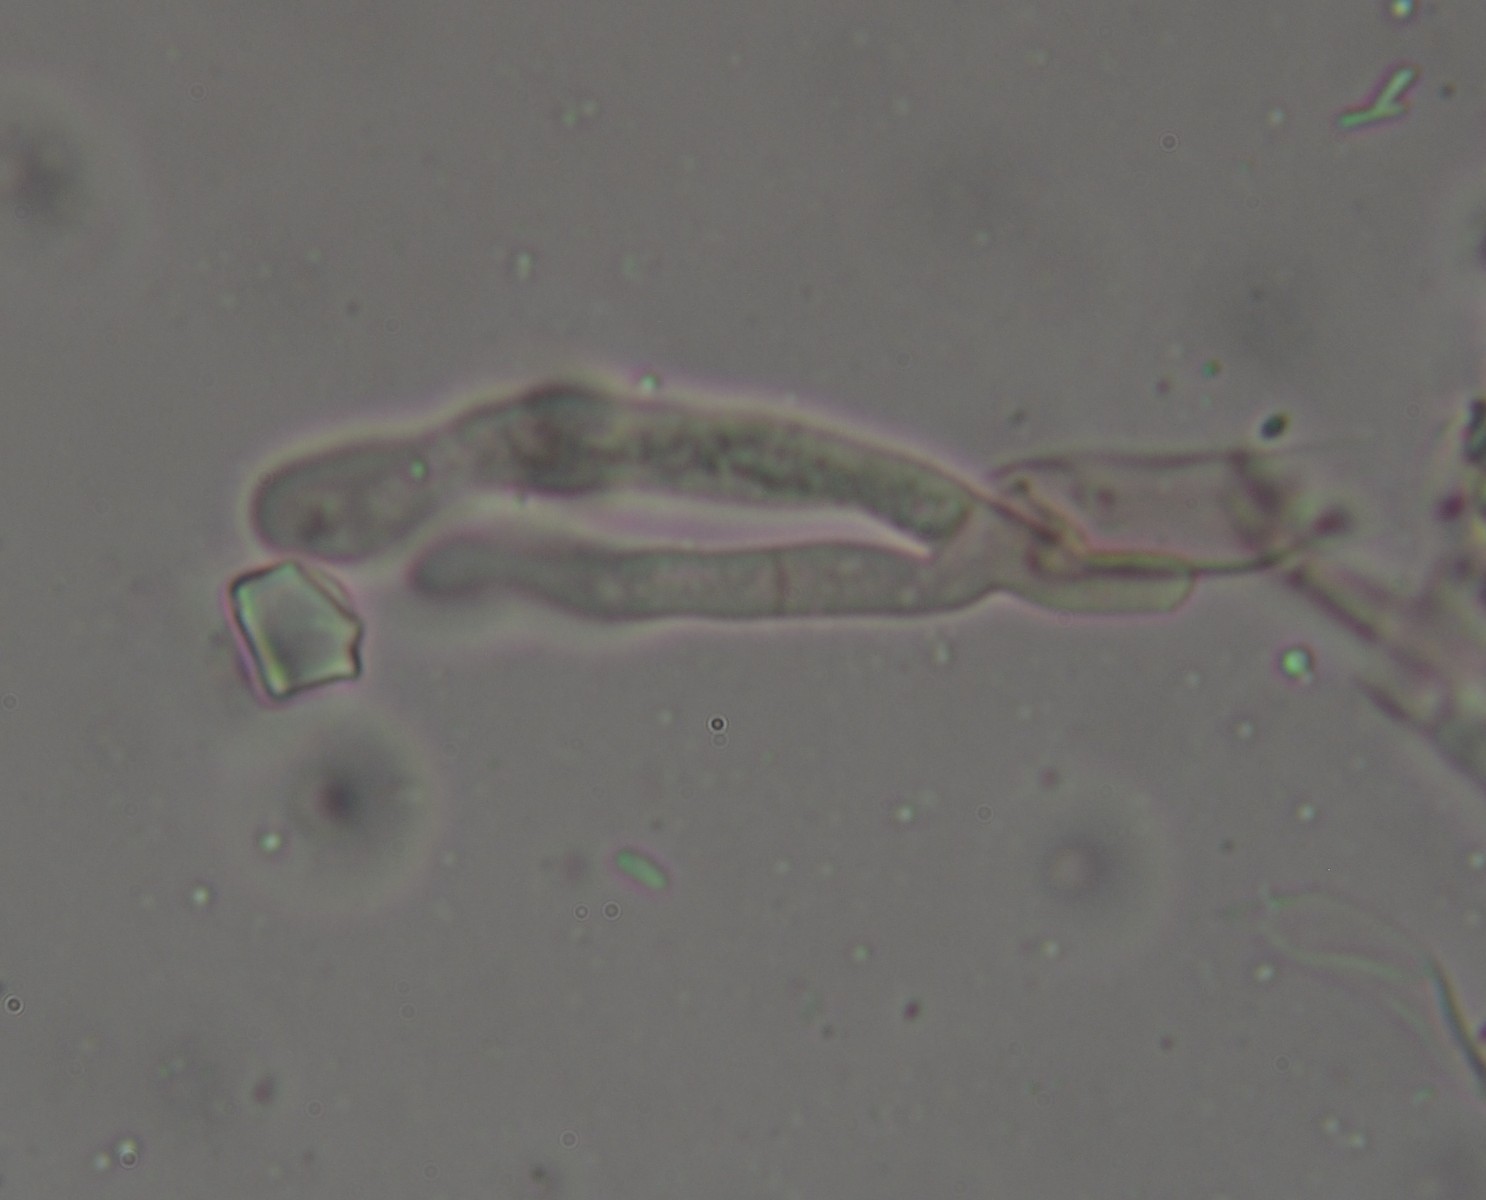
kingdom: Fungi
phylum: Basidiomycota
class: Agaricomycetes
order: Corticiales
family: Corticiaceae
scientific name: Corticiaceae
